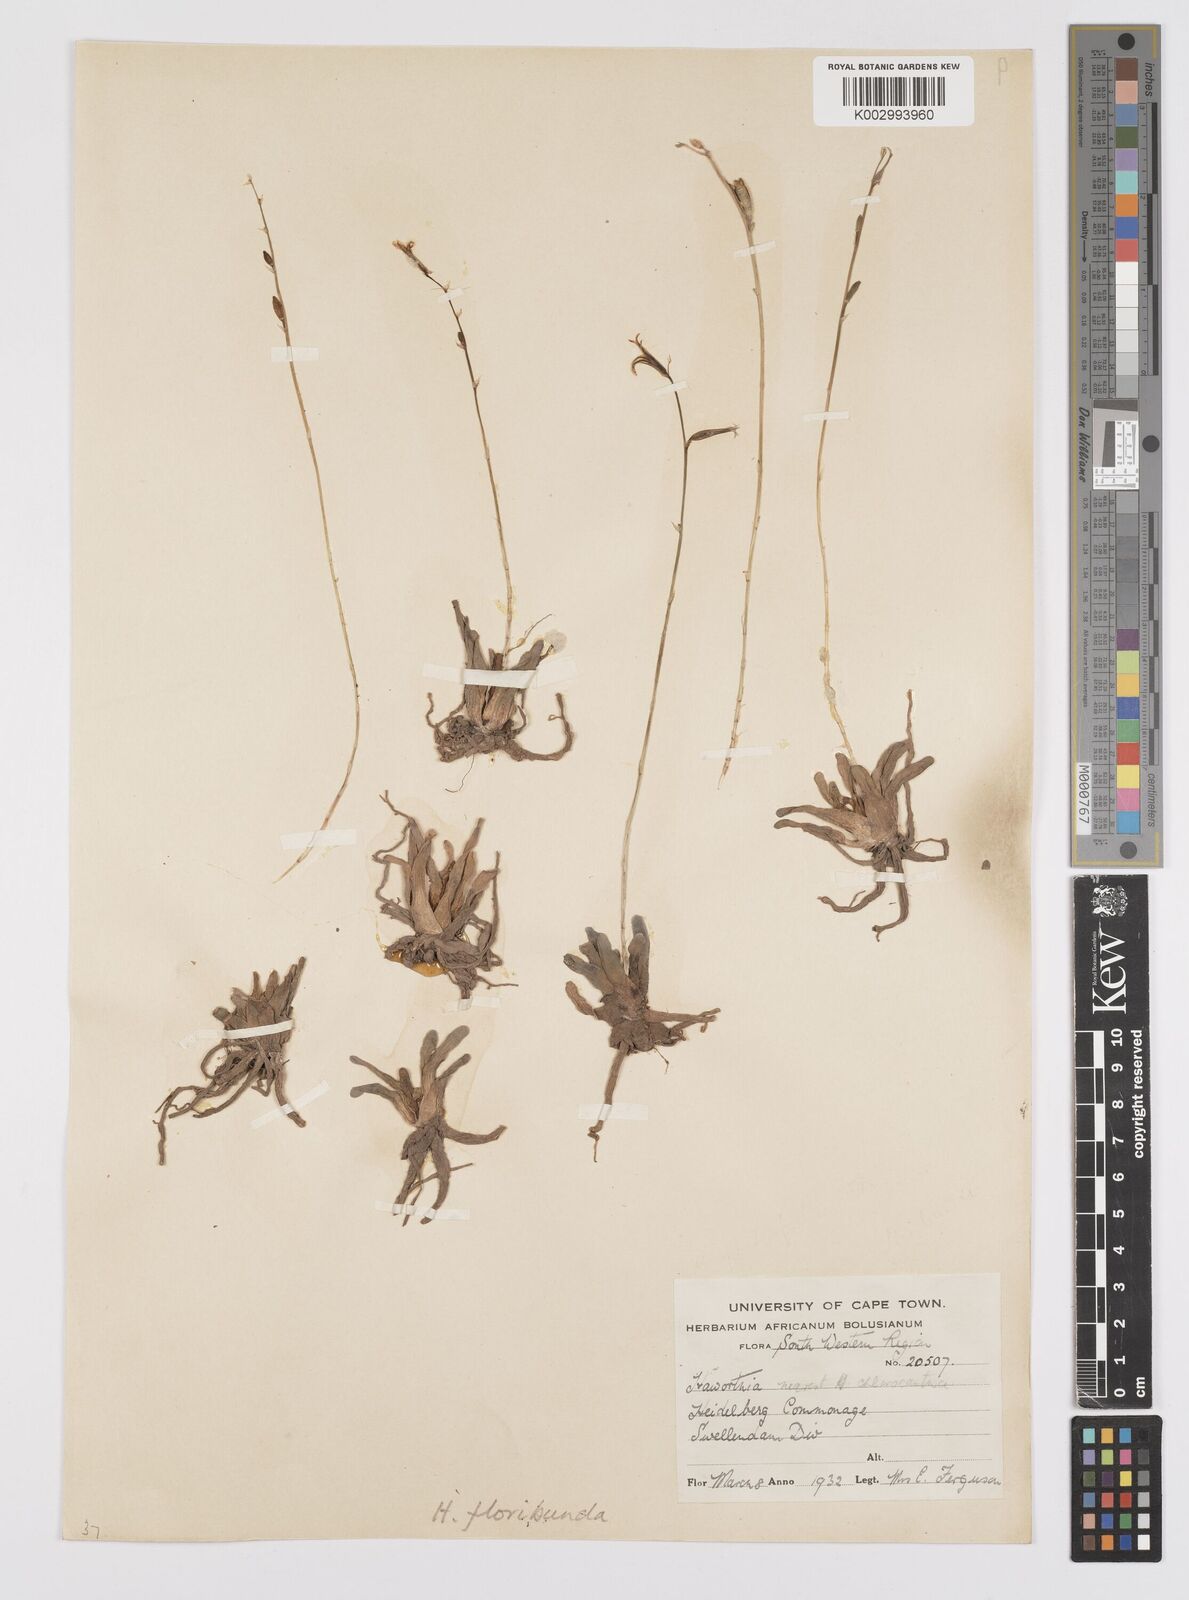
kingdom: Plantae
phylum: Tracheophyta
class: Liliopsida
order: Asparagales
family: Asphodelaceae
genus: Haworthia
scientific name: Haworthia floribunda
